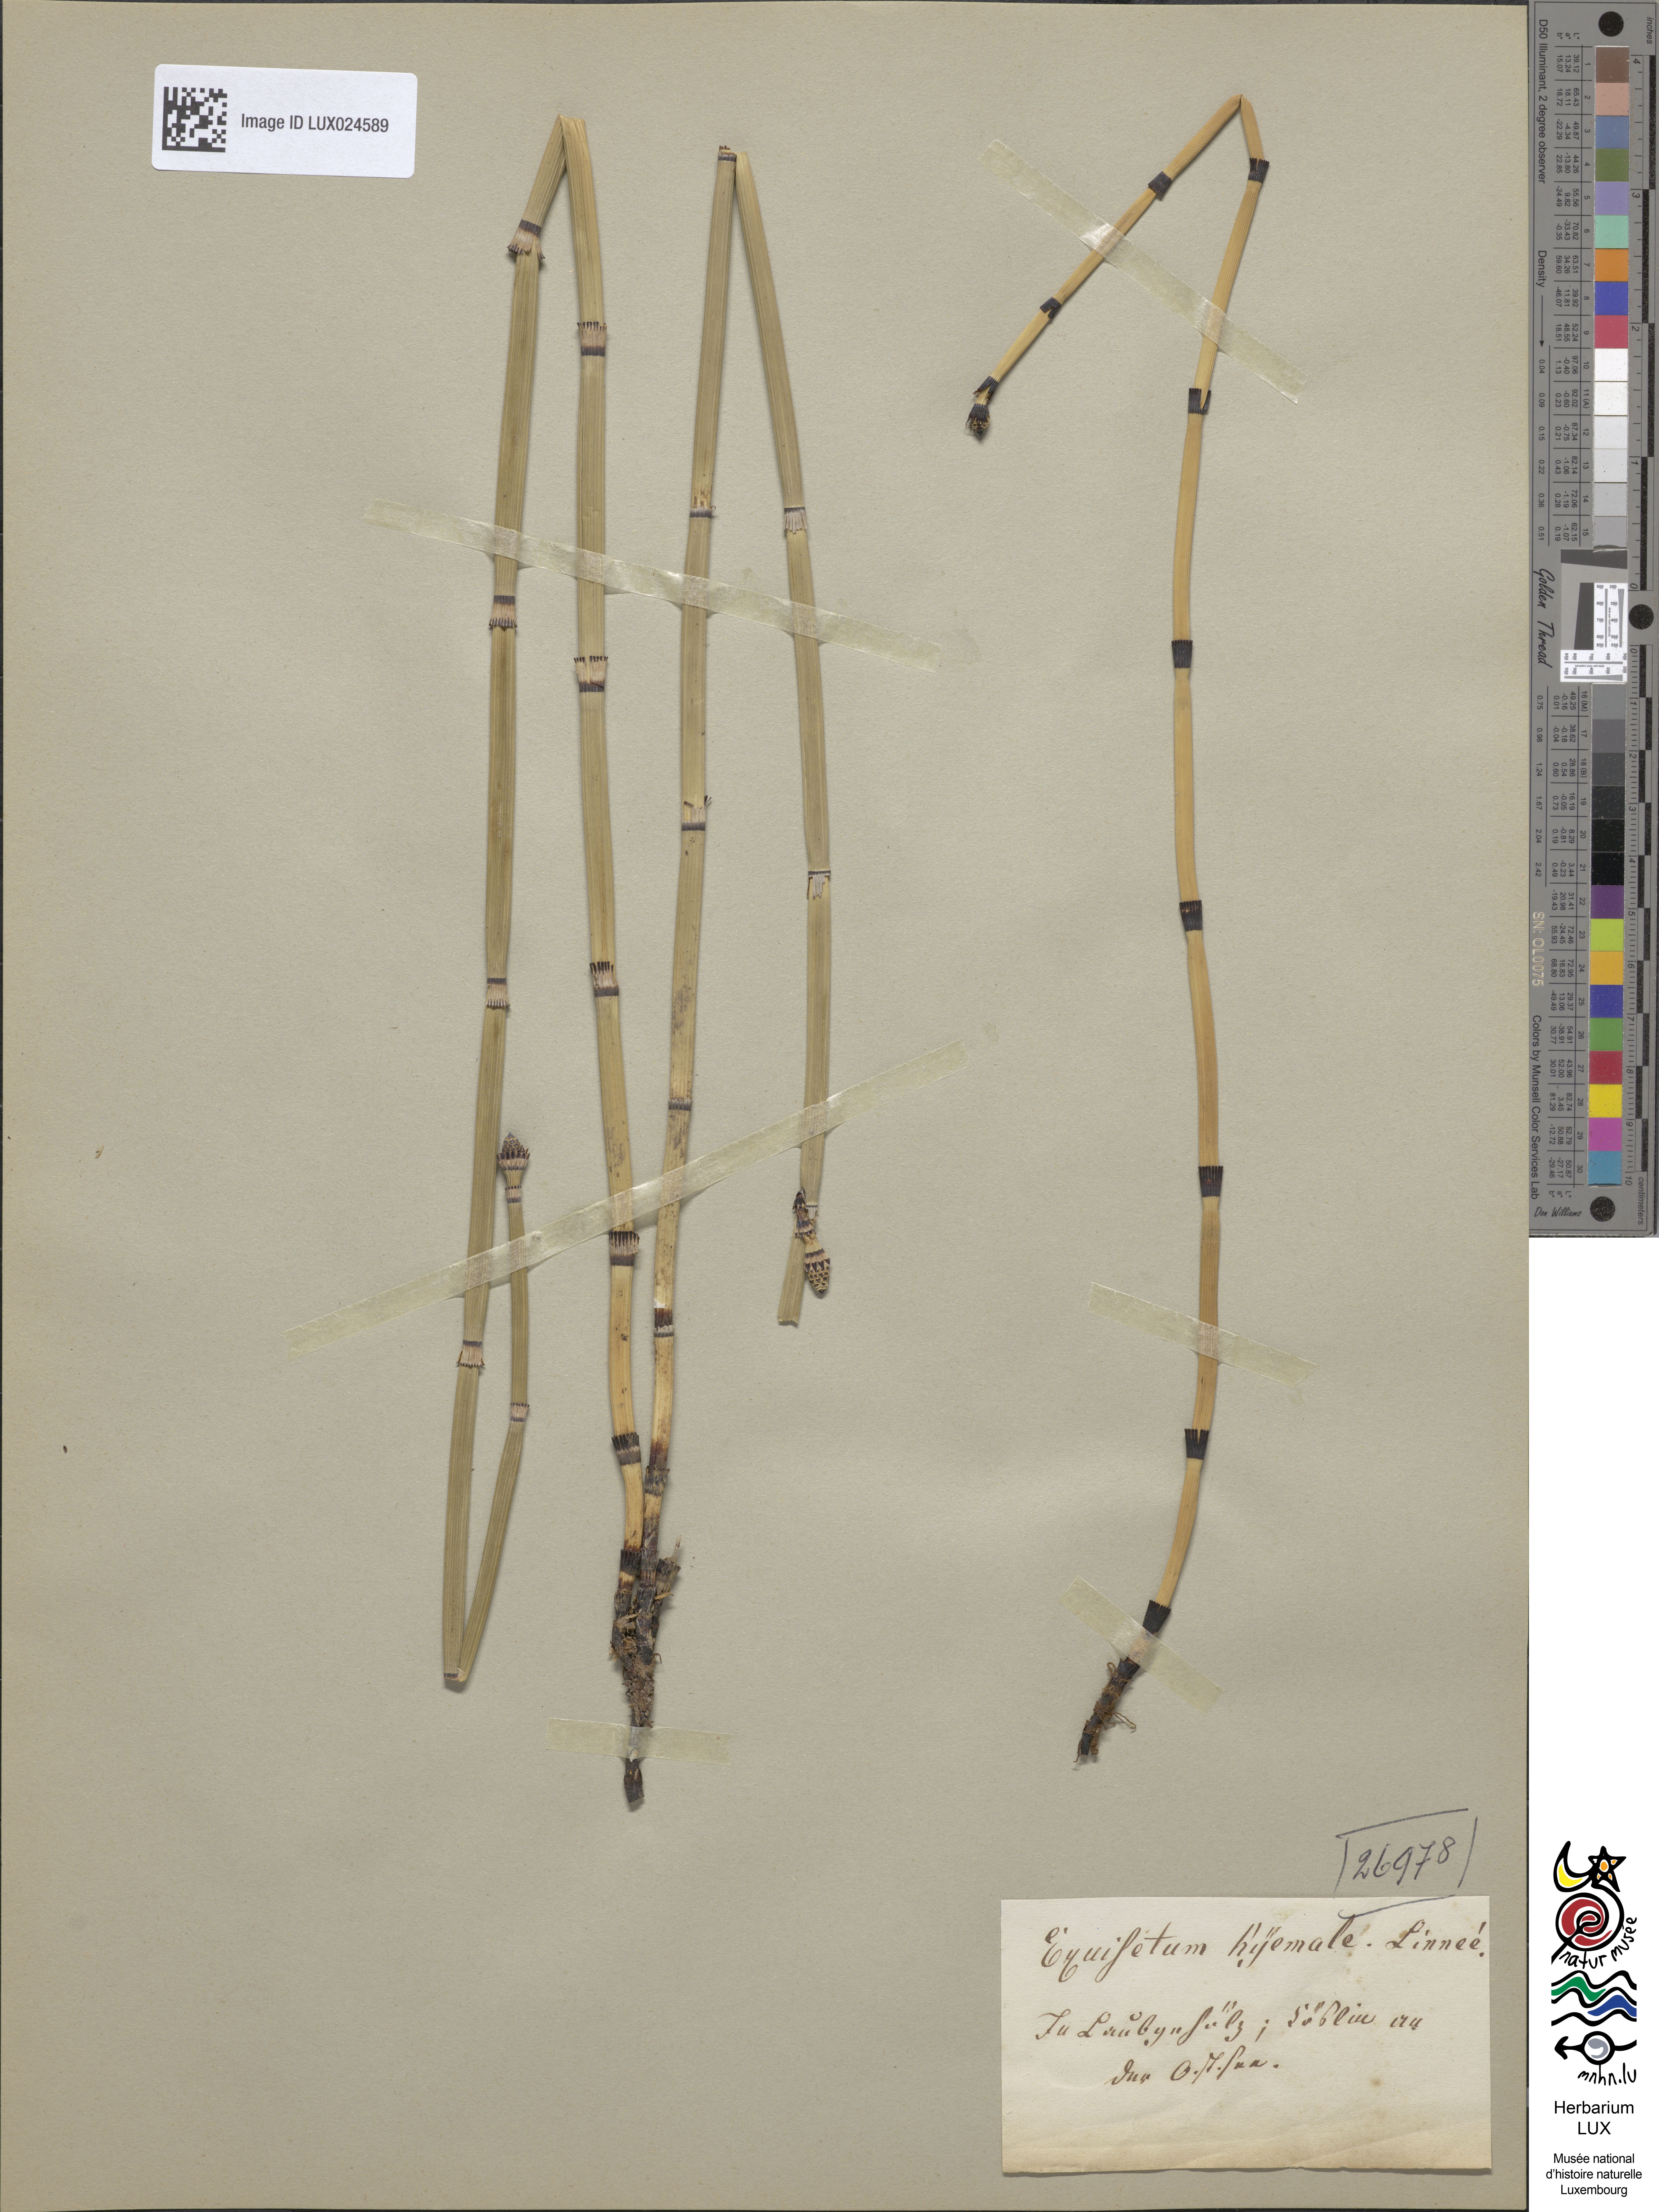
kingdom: Plantae
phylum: Tracheophyta
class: Polypodiopsida
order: Equisetales
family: Equisetaceae
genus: Equisetum
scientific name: Equisetum hyemale
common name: Rough horsetail
